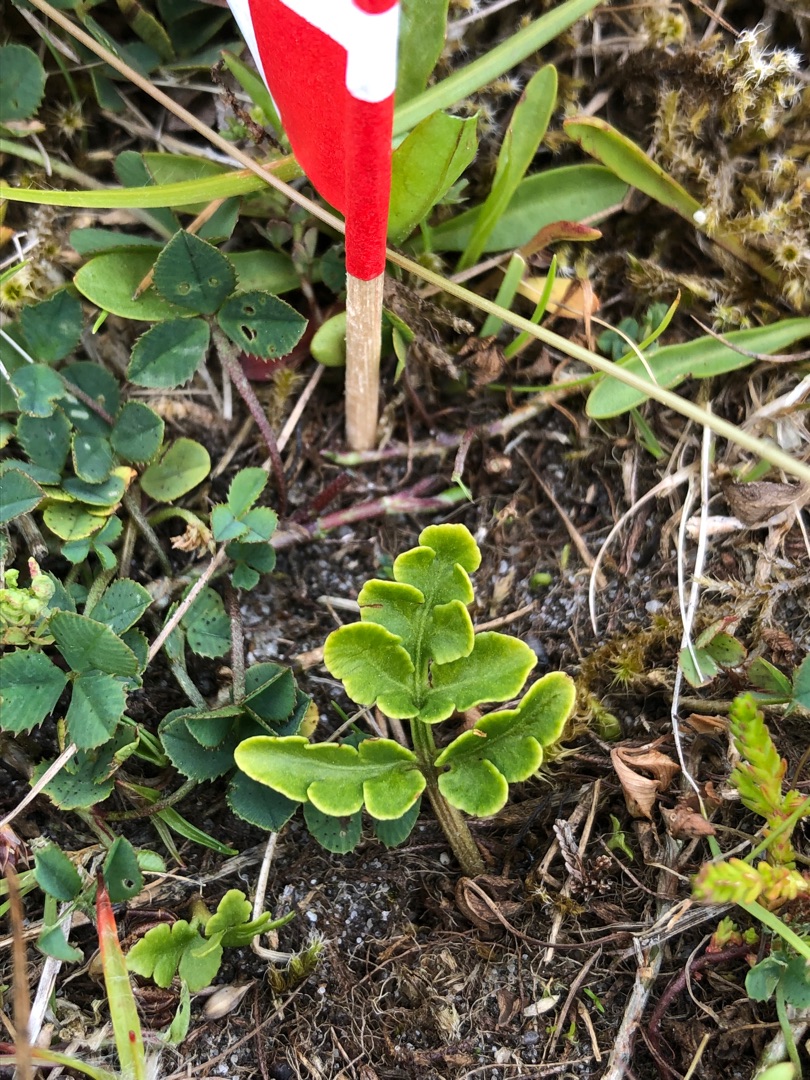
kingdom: Plantae
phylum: Tracheophyta
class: Polypodiopsida
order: Ophioglossales
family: Ophioglossaceae
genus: Sceptridium
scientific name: Sceptridium multifidum
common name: Stilk-månerude
